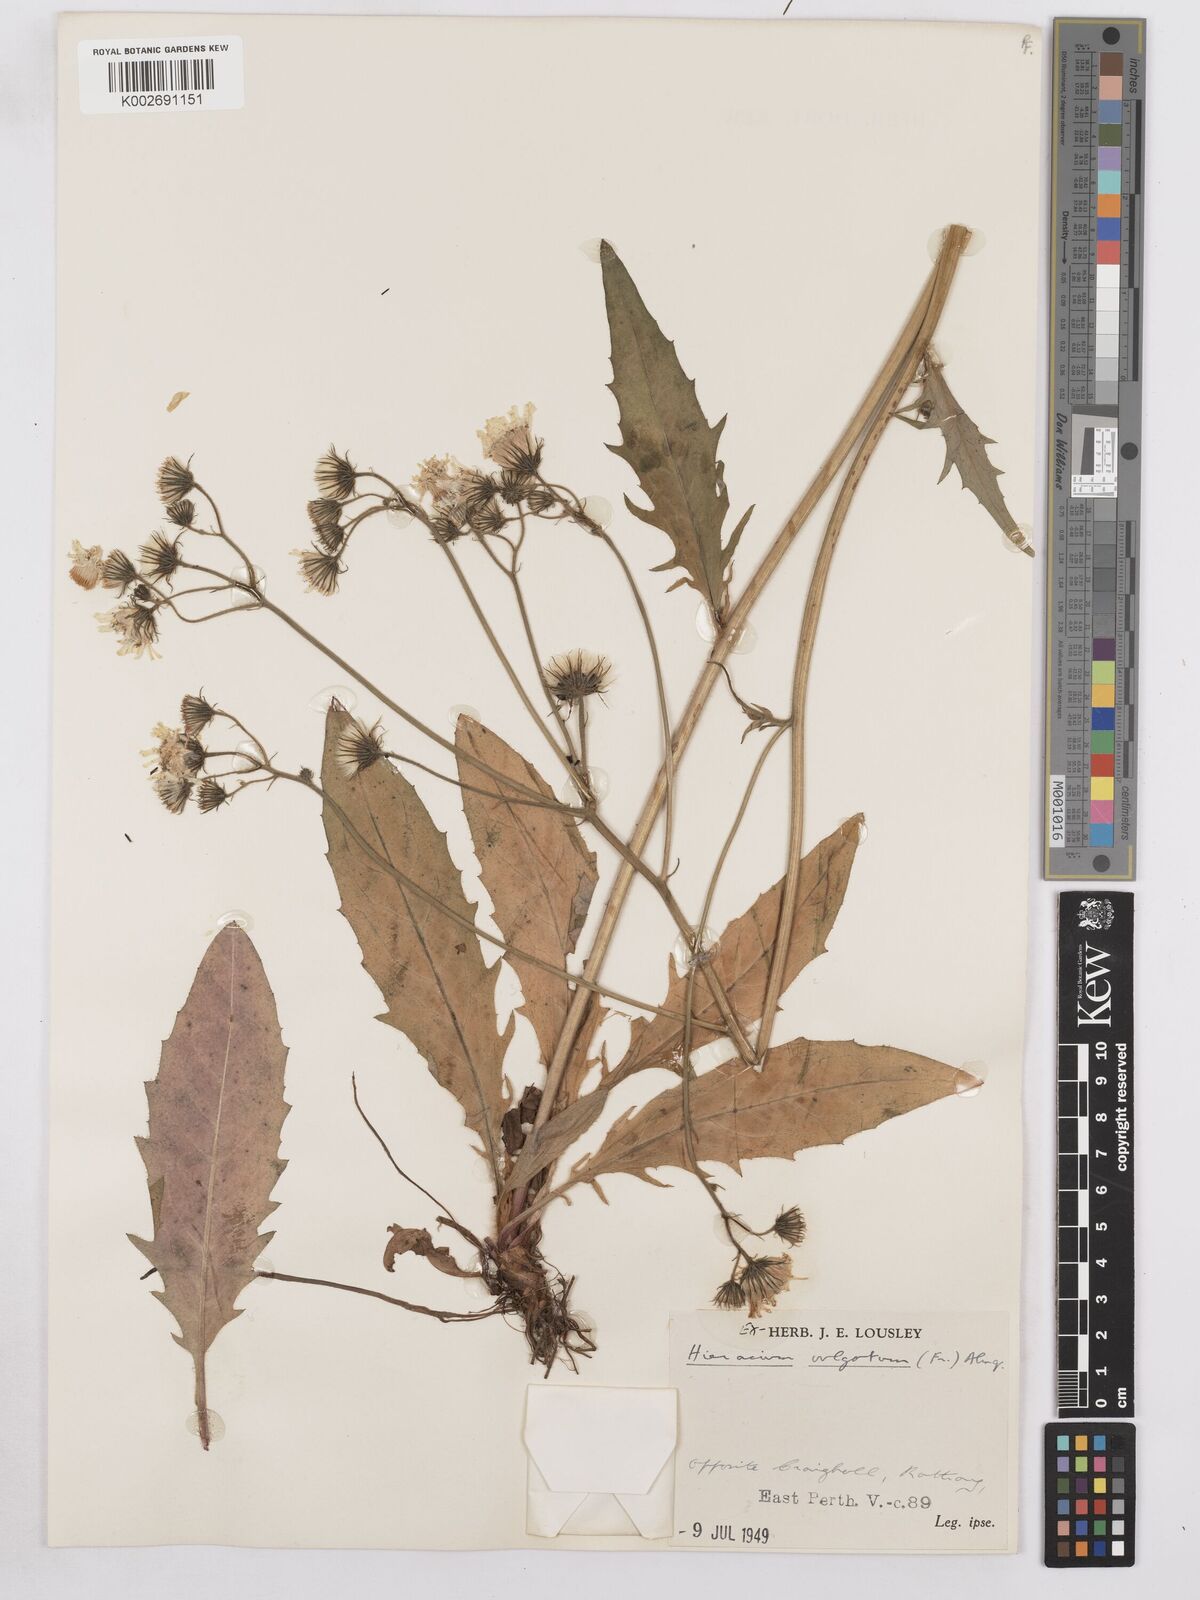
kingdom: Plantae
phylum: Tracheophyta
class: Magnoliopsida
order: Asterales
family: Asteraceae
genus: Hieracium
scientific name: Hieracium lachenalii
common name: Common hawkweed
